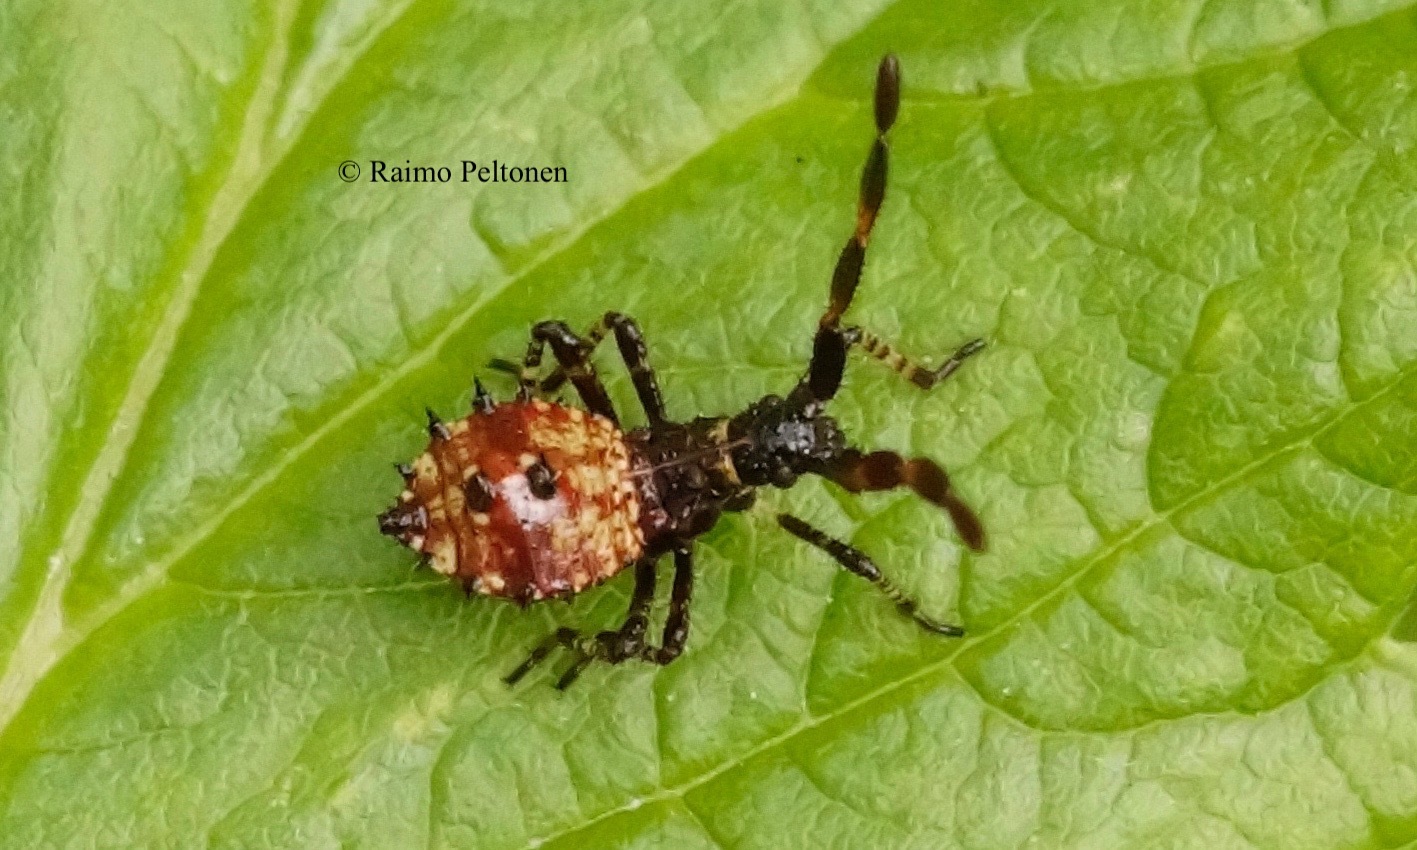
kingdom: Animalia
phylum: Arthropoda
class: Insecta
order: Hemiptera
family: Coreidae
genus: Coreus
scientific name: Coreus marginatus
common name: Dock bug
